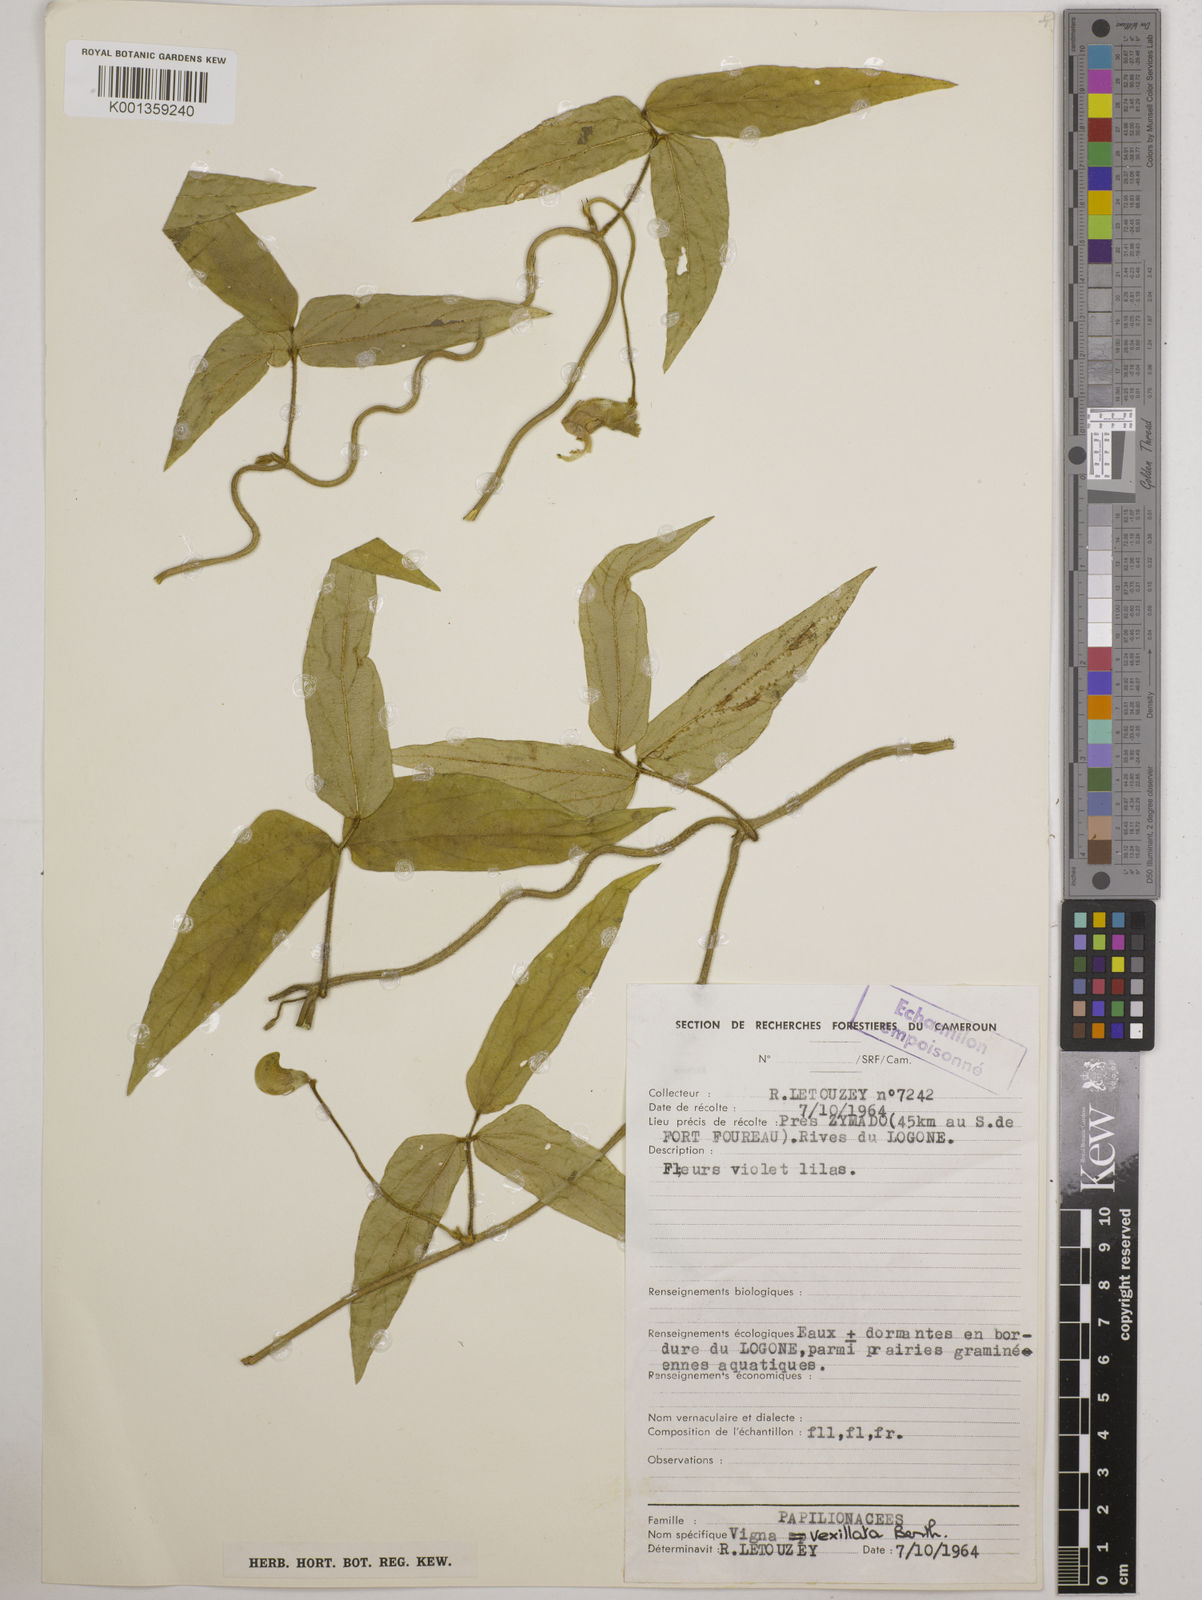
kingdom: Plantae
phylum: Tracheophyta
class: Magnoliopsida
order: Fabales
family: Fabaceae
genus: Vigna
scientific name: Vigna vexillata
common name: Zombi pea
